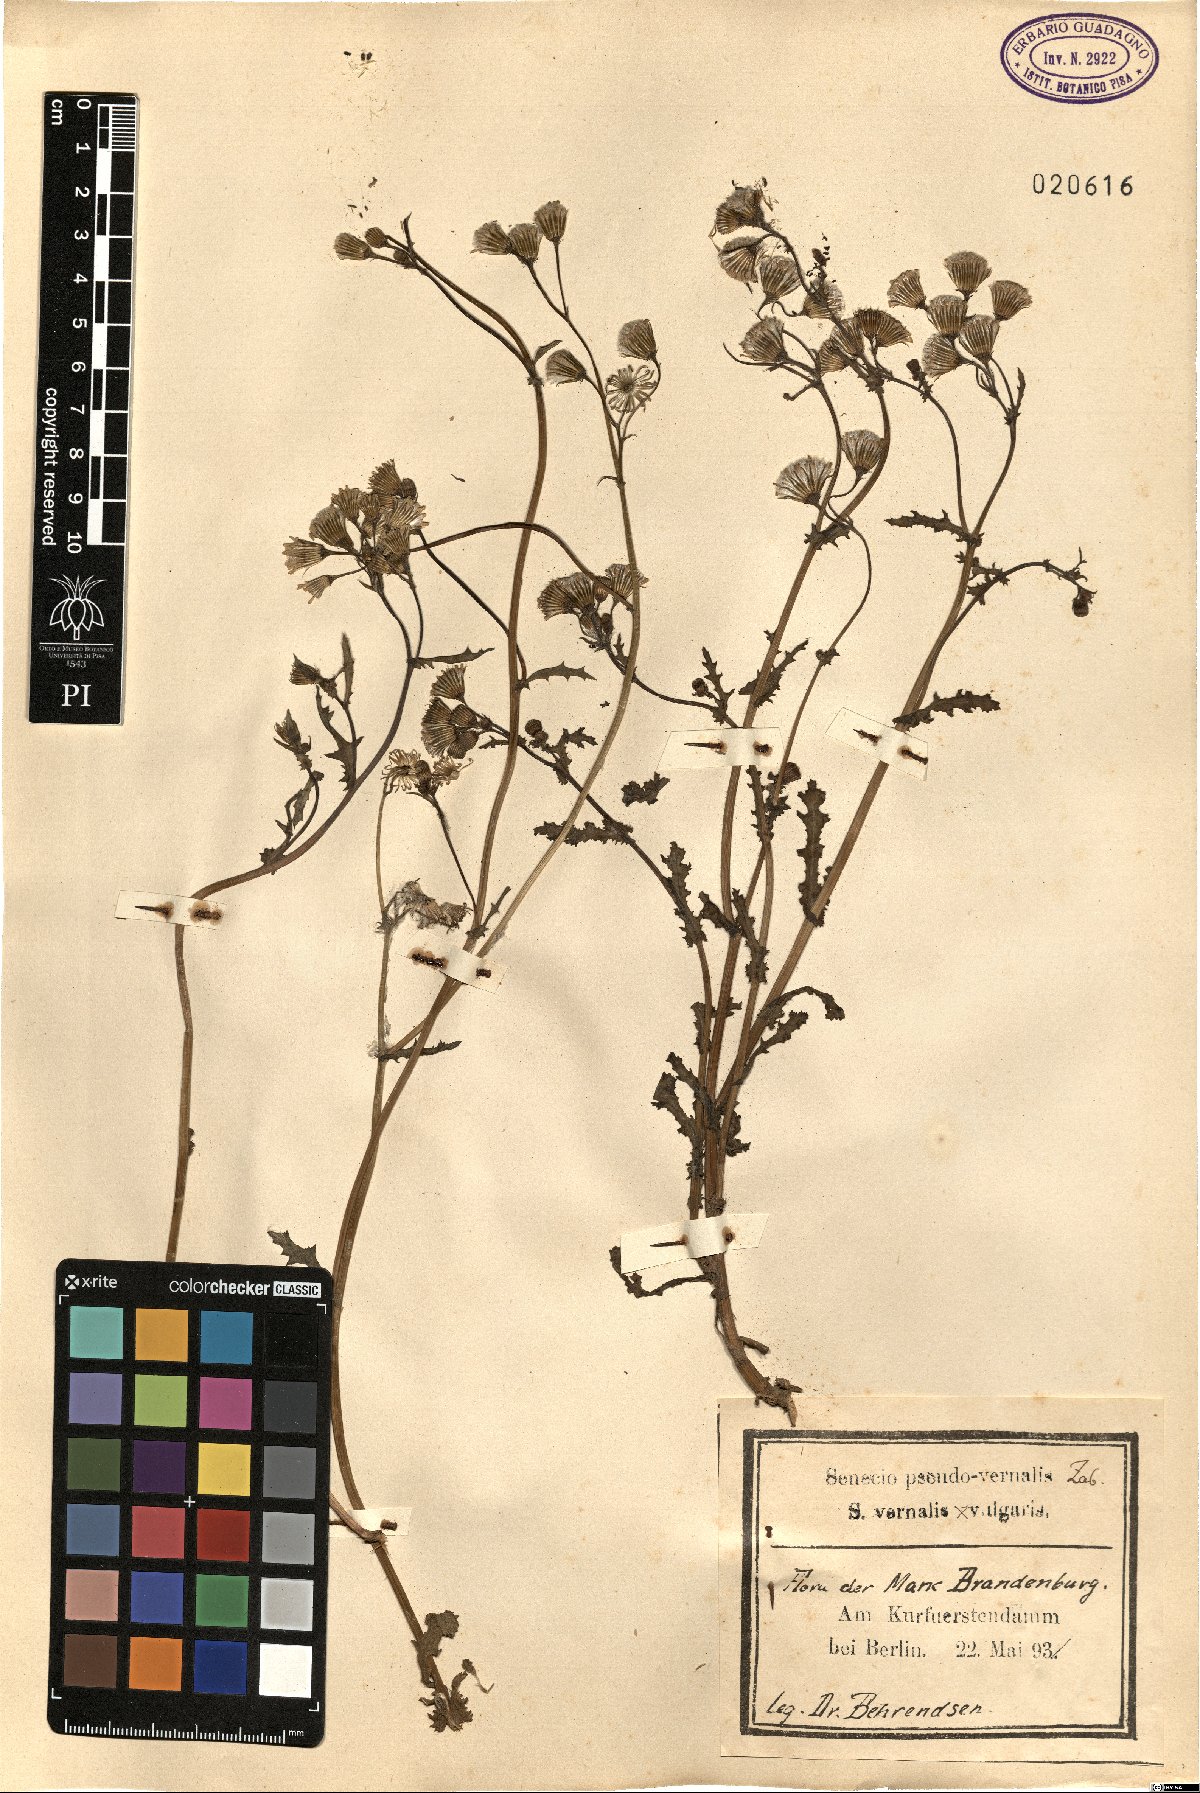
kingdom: Plantae
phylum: Tracheophyta
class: Magnoliopsida
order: Asterales
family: Asteraceae
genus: Senecio
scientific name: Senecio pseudovernalis
